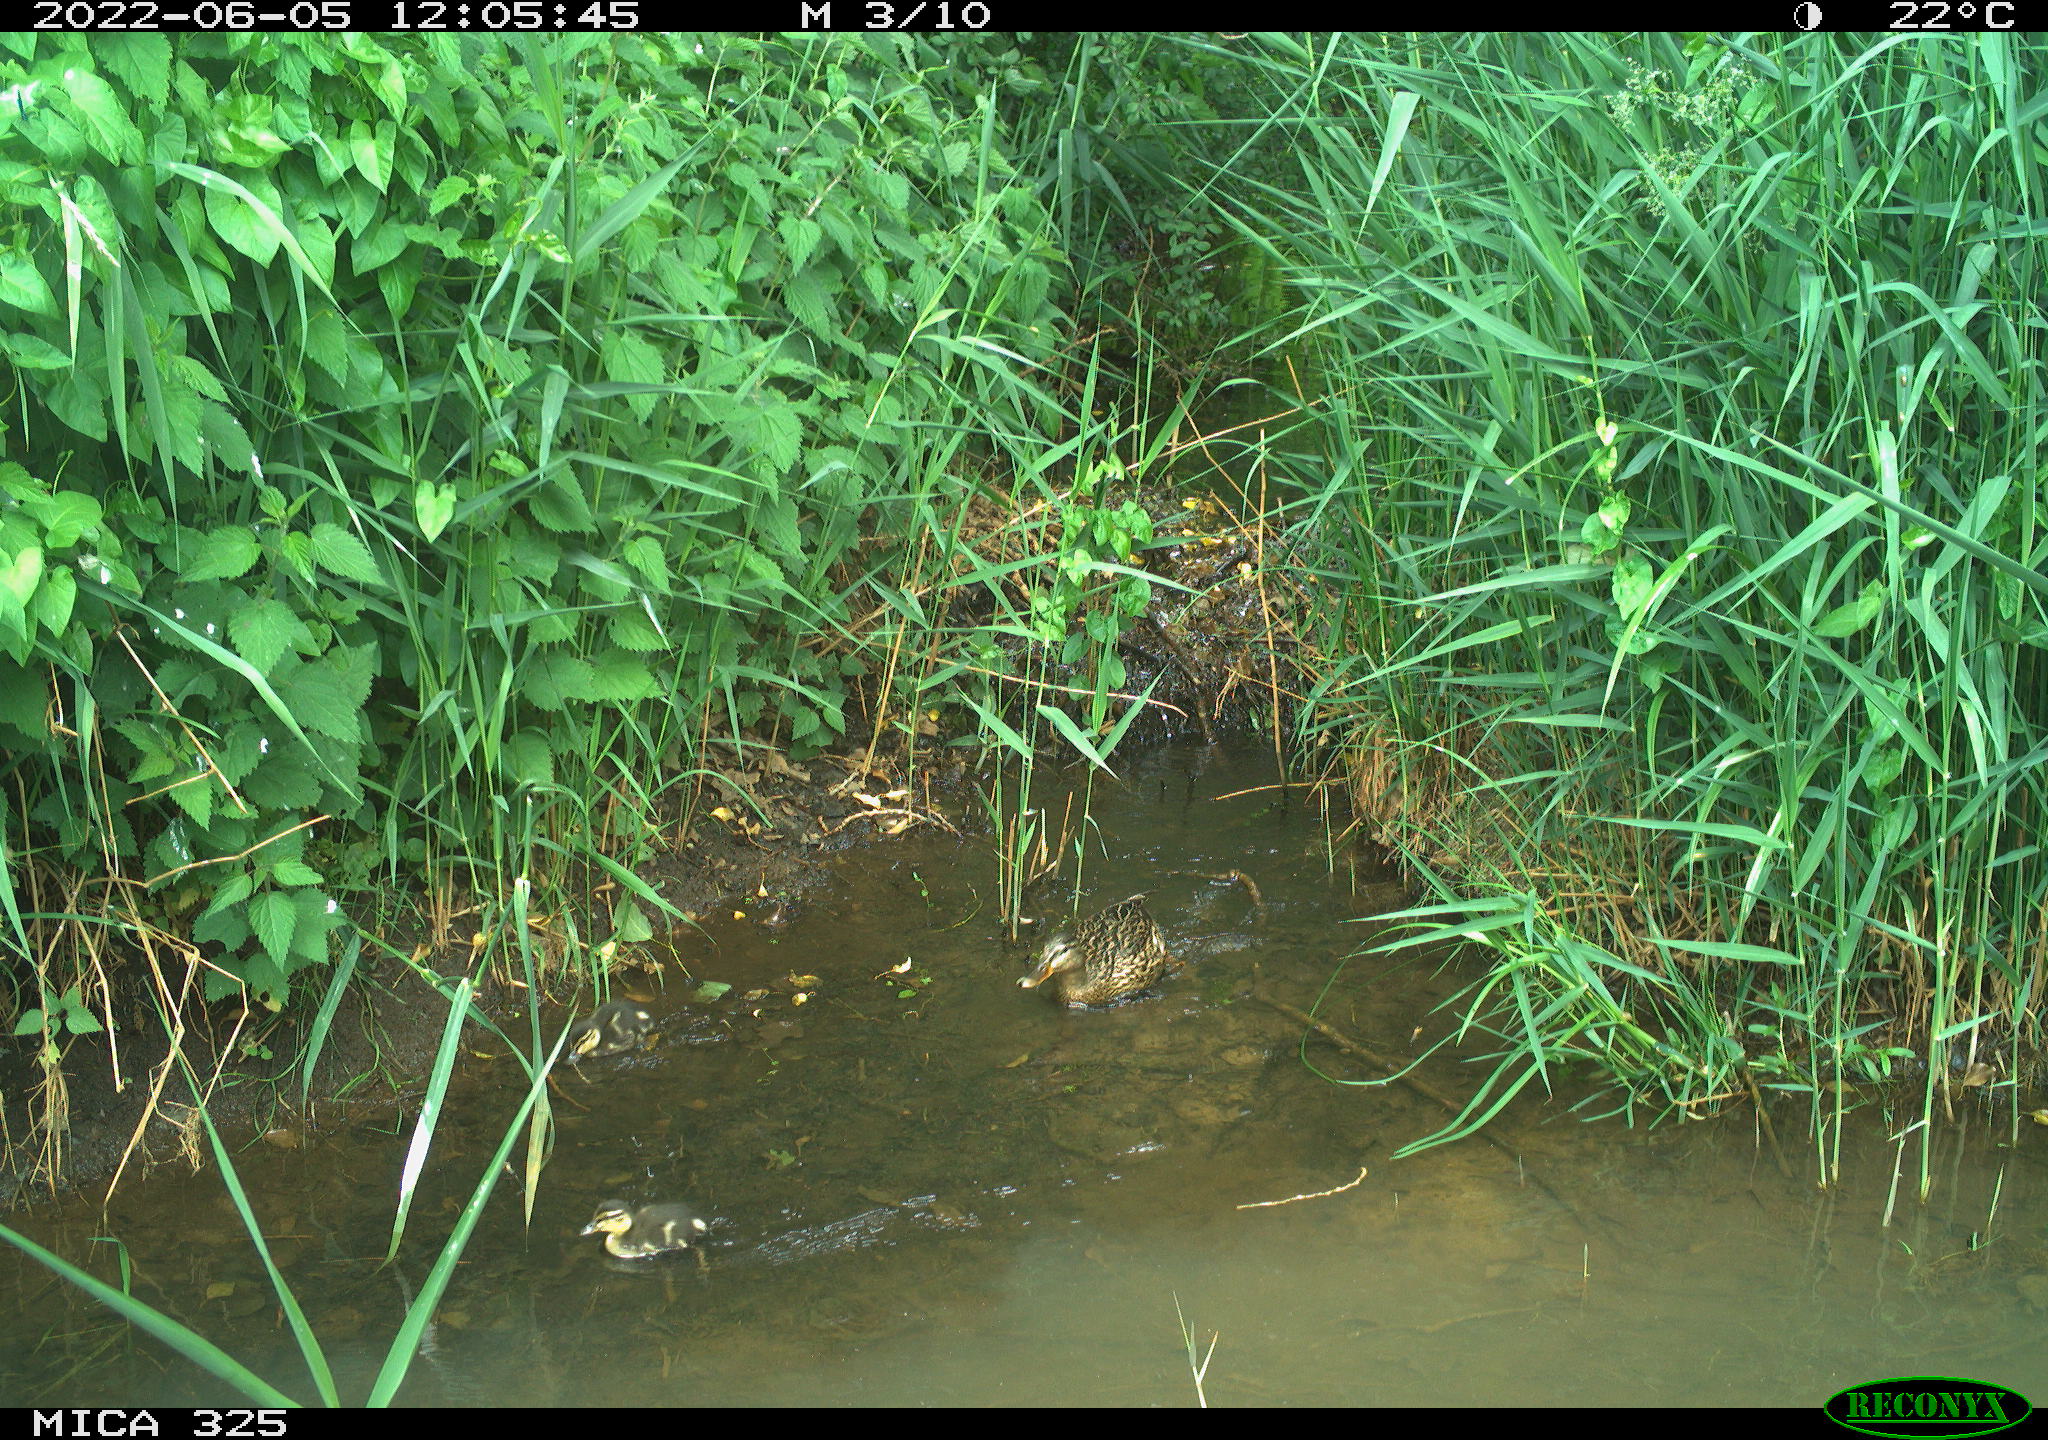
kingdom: Animalia
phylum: Chordata
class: Aves
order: Anseriformes
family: Anatidae
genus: Anas
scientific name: Anas platyrhynchos
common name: Mallard
